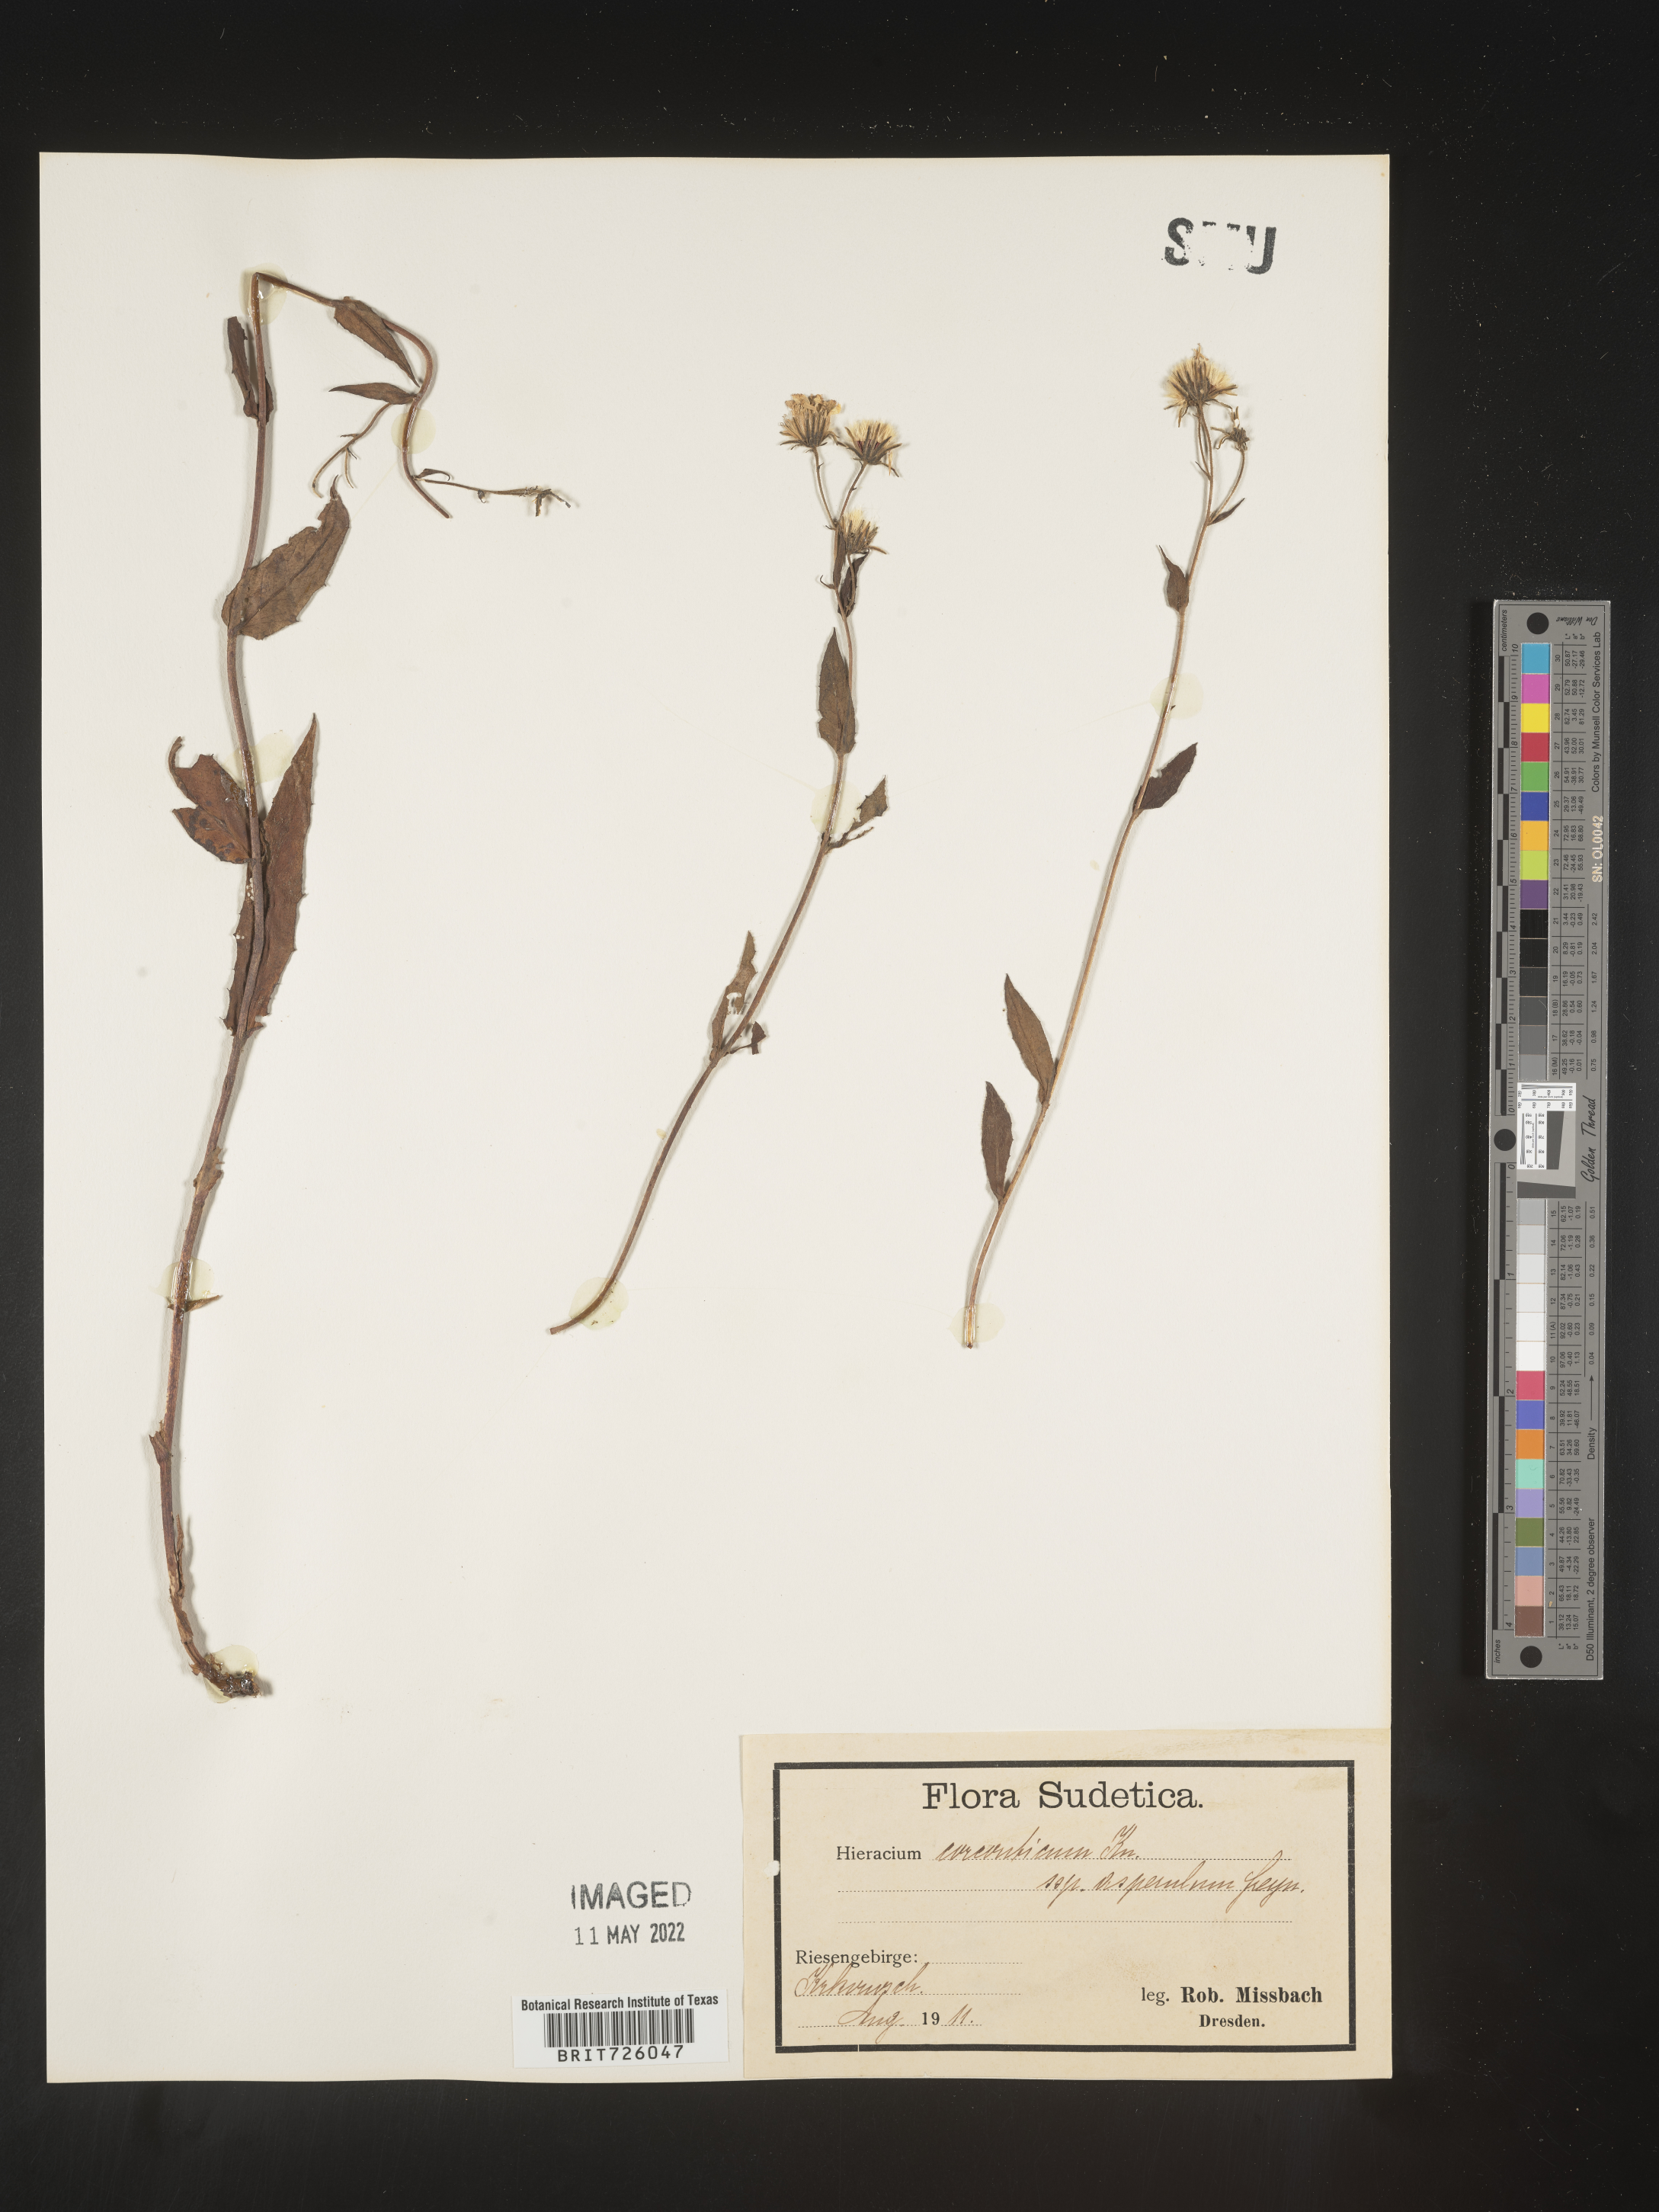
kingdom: Plantae
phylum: Tracheophyta
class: Magnoliopsida
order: Asterales
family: Asteraceae
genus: Hieracium
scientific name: Hieracium
